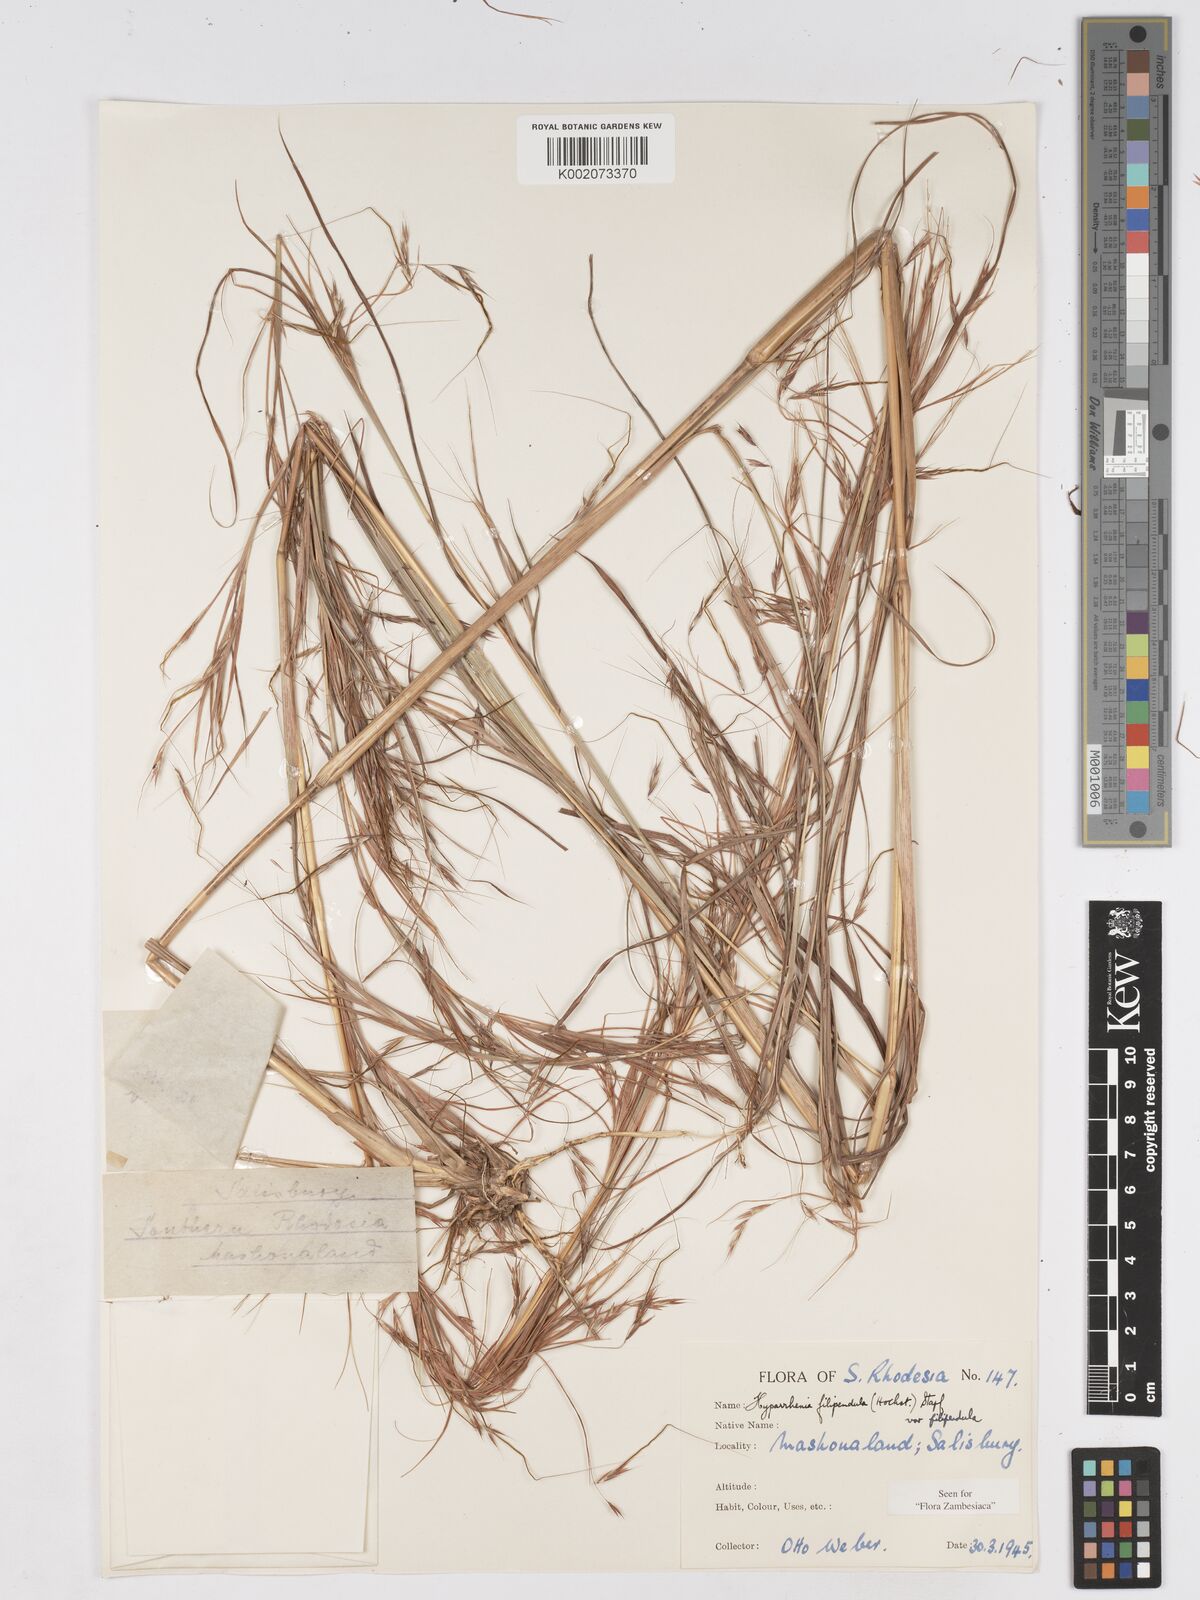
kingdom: Plantae
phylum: Tracheophyta
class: Liliopsida
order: Poales
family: Poaceae
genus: Hyparrhenia
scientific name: Hyparrhenia filipendula
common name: Tambookie grass
